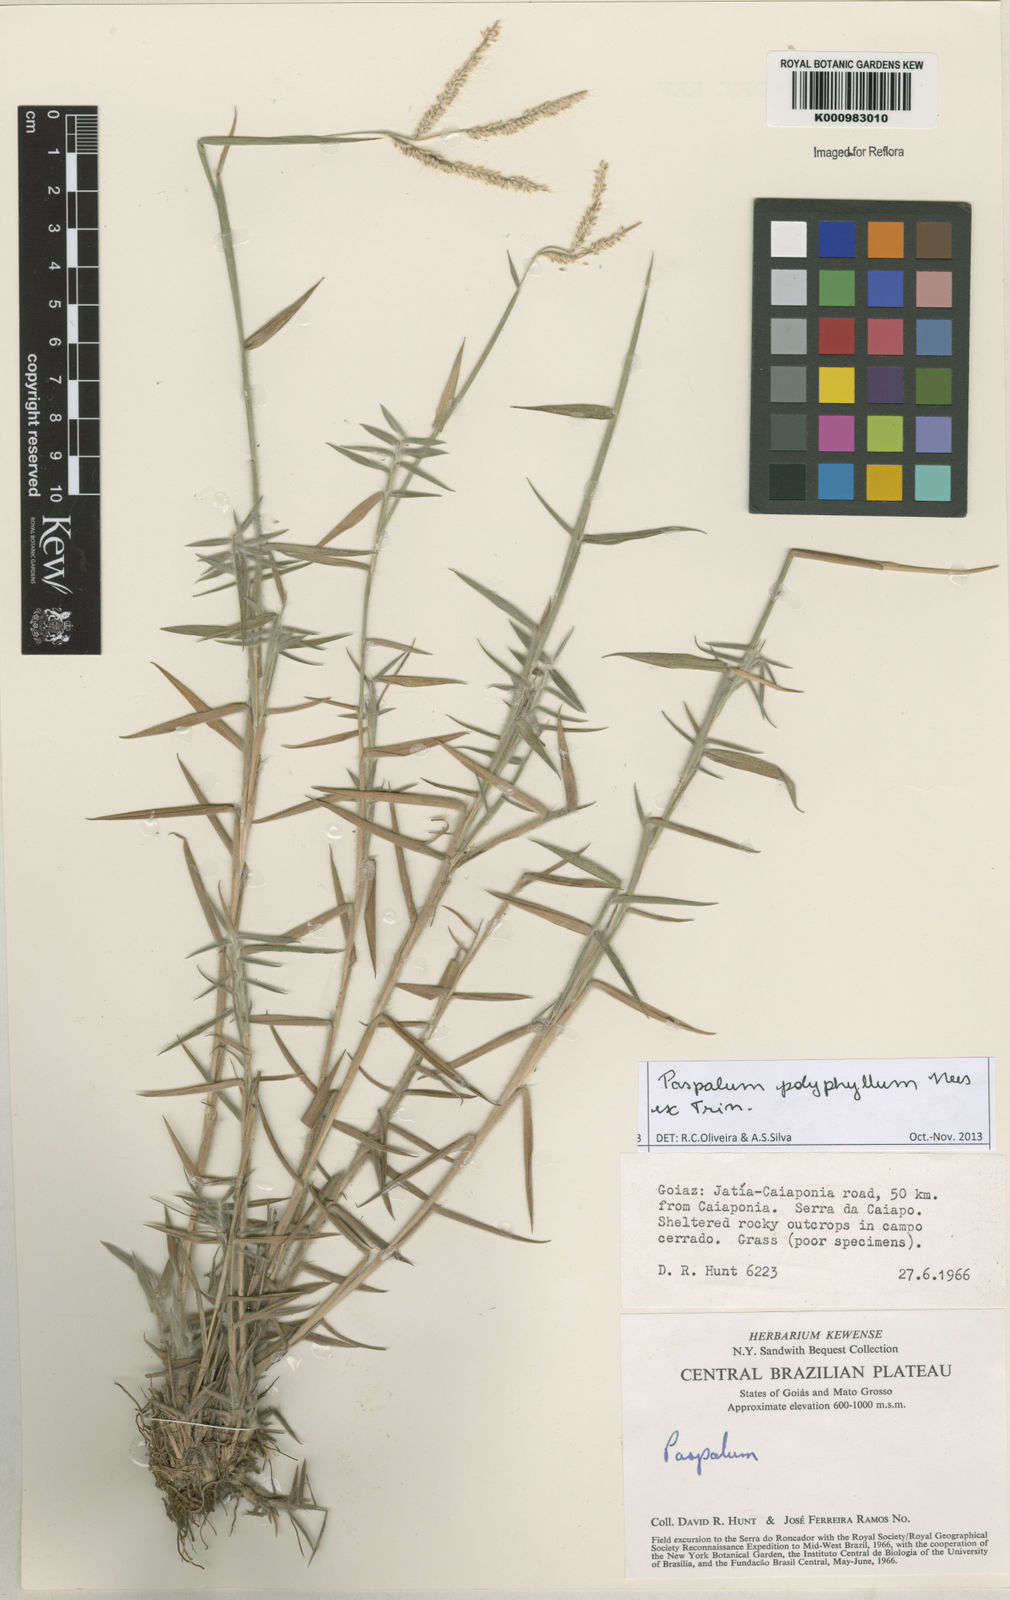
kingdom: Plantae
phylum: Tracheophyta
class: Liliopsida
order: Poales
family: Poaceae
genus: Paspalum
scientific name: Paspalum
